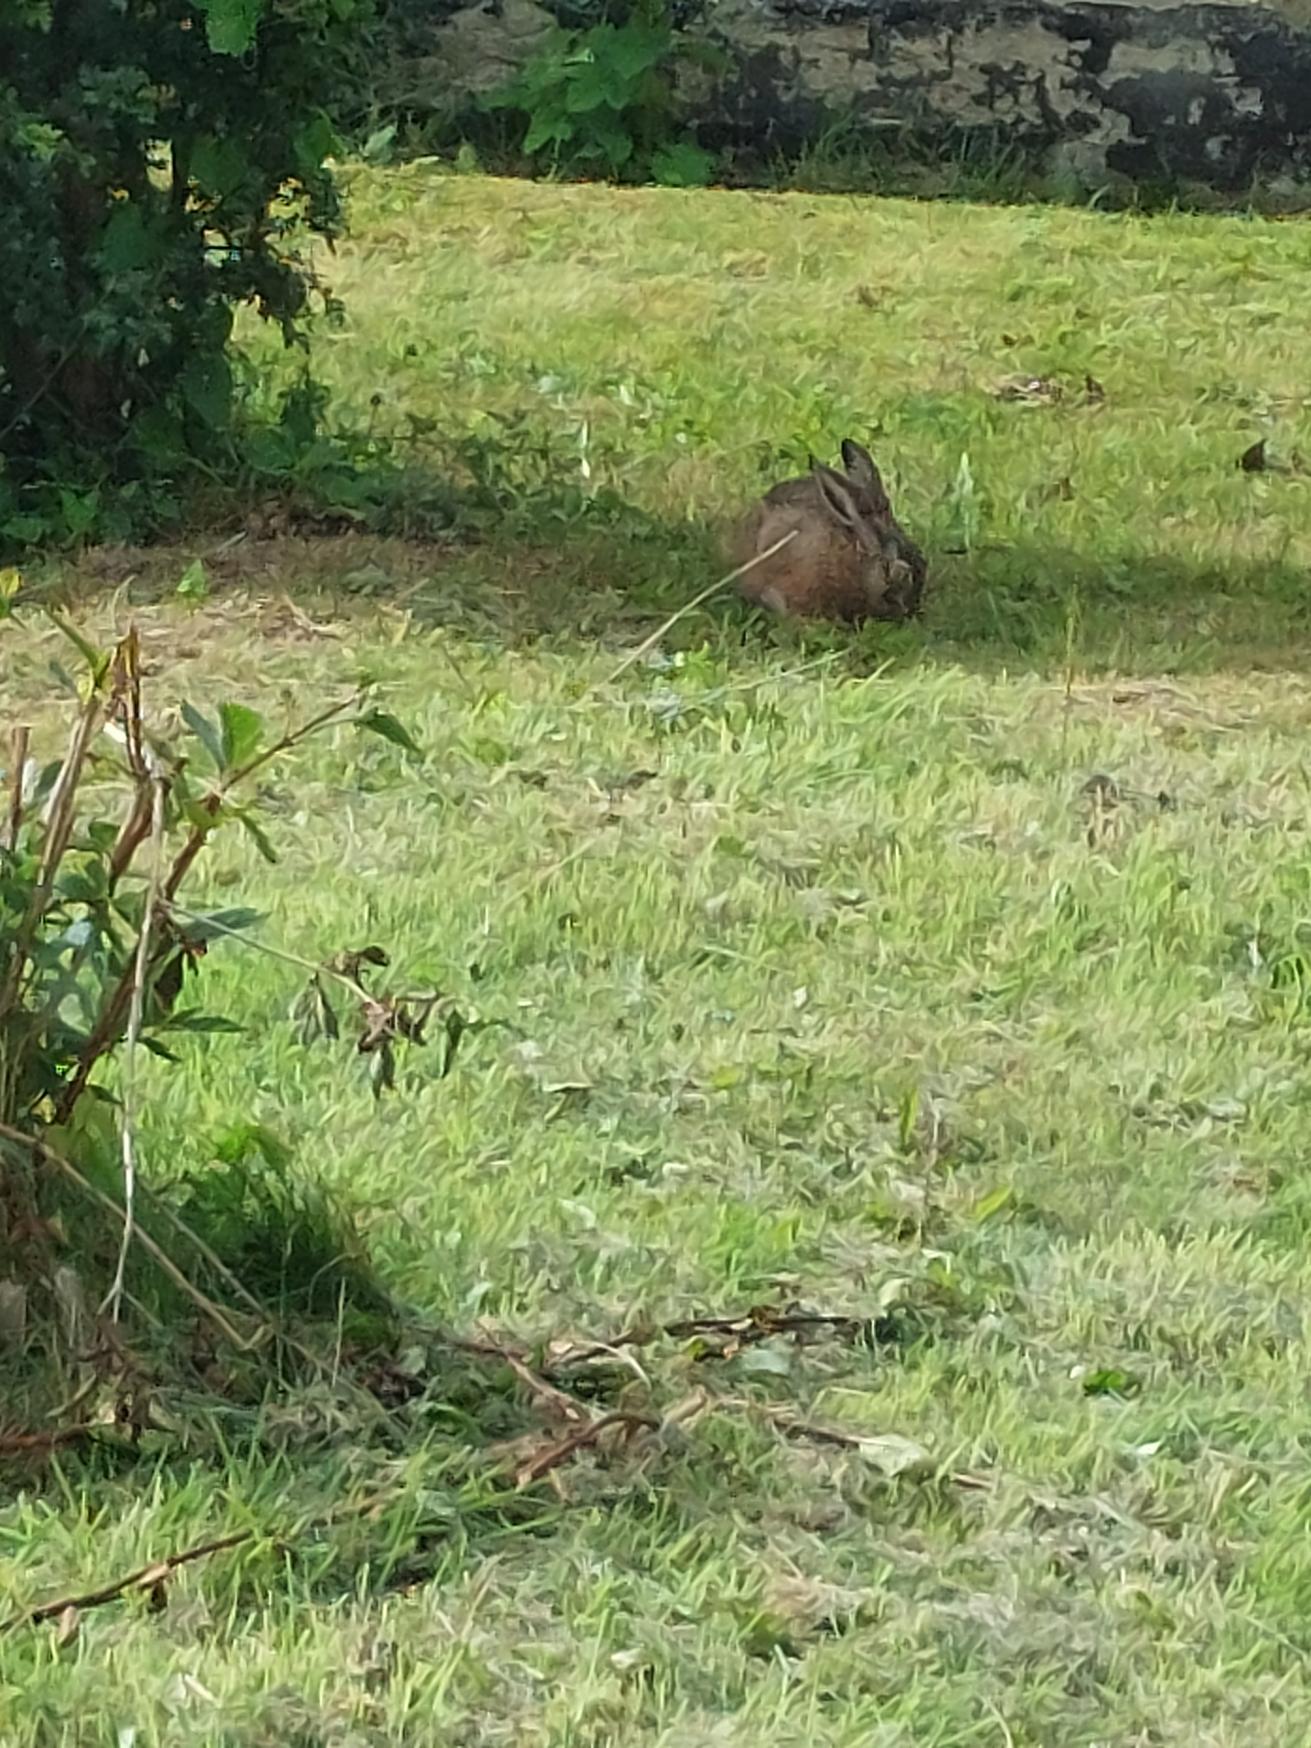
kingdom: Animalia
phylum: Chordata
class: Mammalia
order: Lagomorpha
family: Leporidae
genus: Lepus
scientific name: Lepus europaeus
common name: Hare
